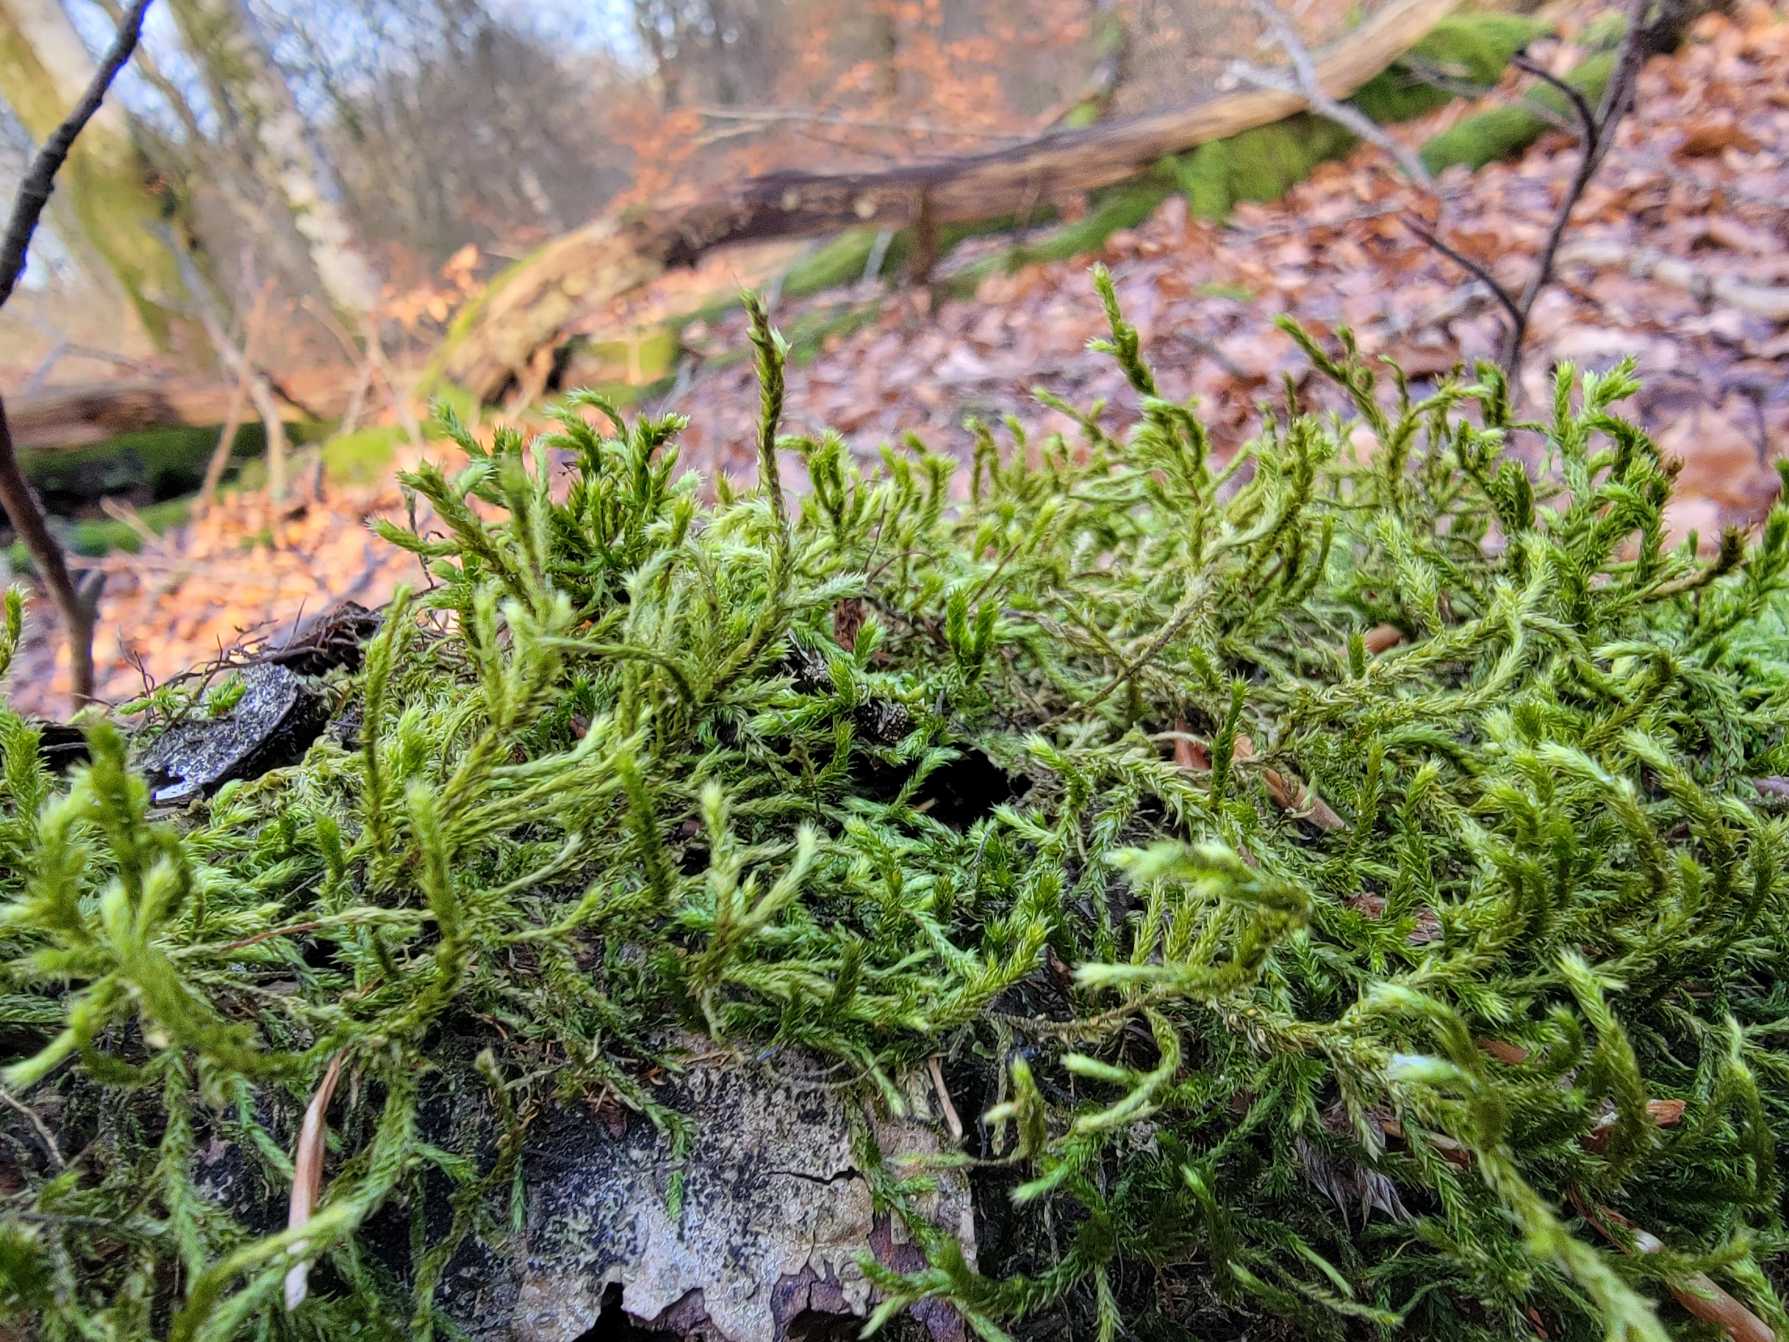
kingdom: Plantae
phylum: Bryophyta
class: Bryopsida
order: Hypnales
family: Antitrichiaceae
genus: Antitrichia
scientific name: Antitrichia curtipendula
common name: Åben krogtand
